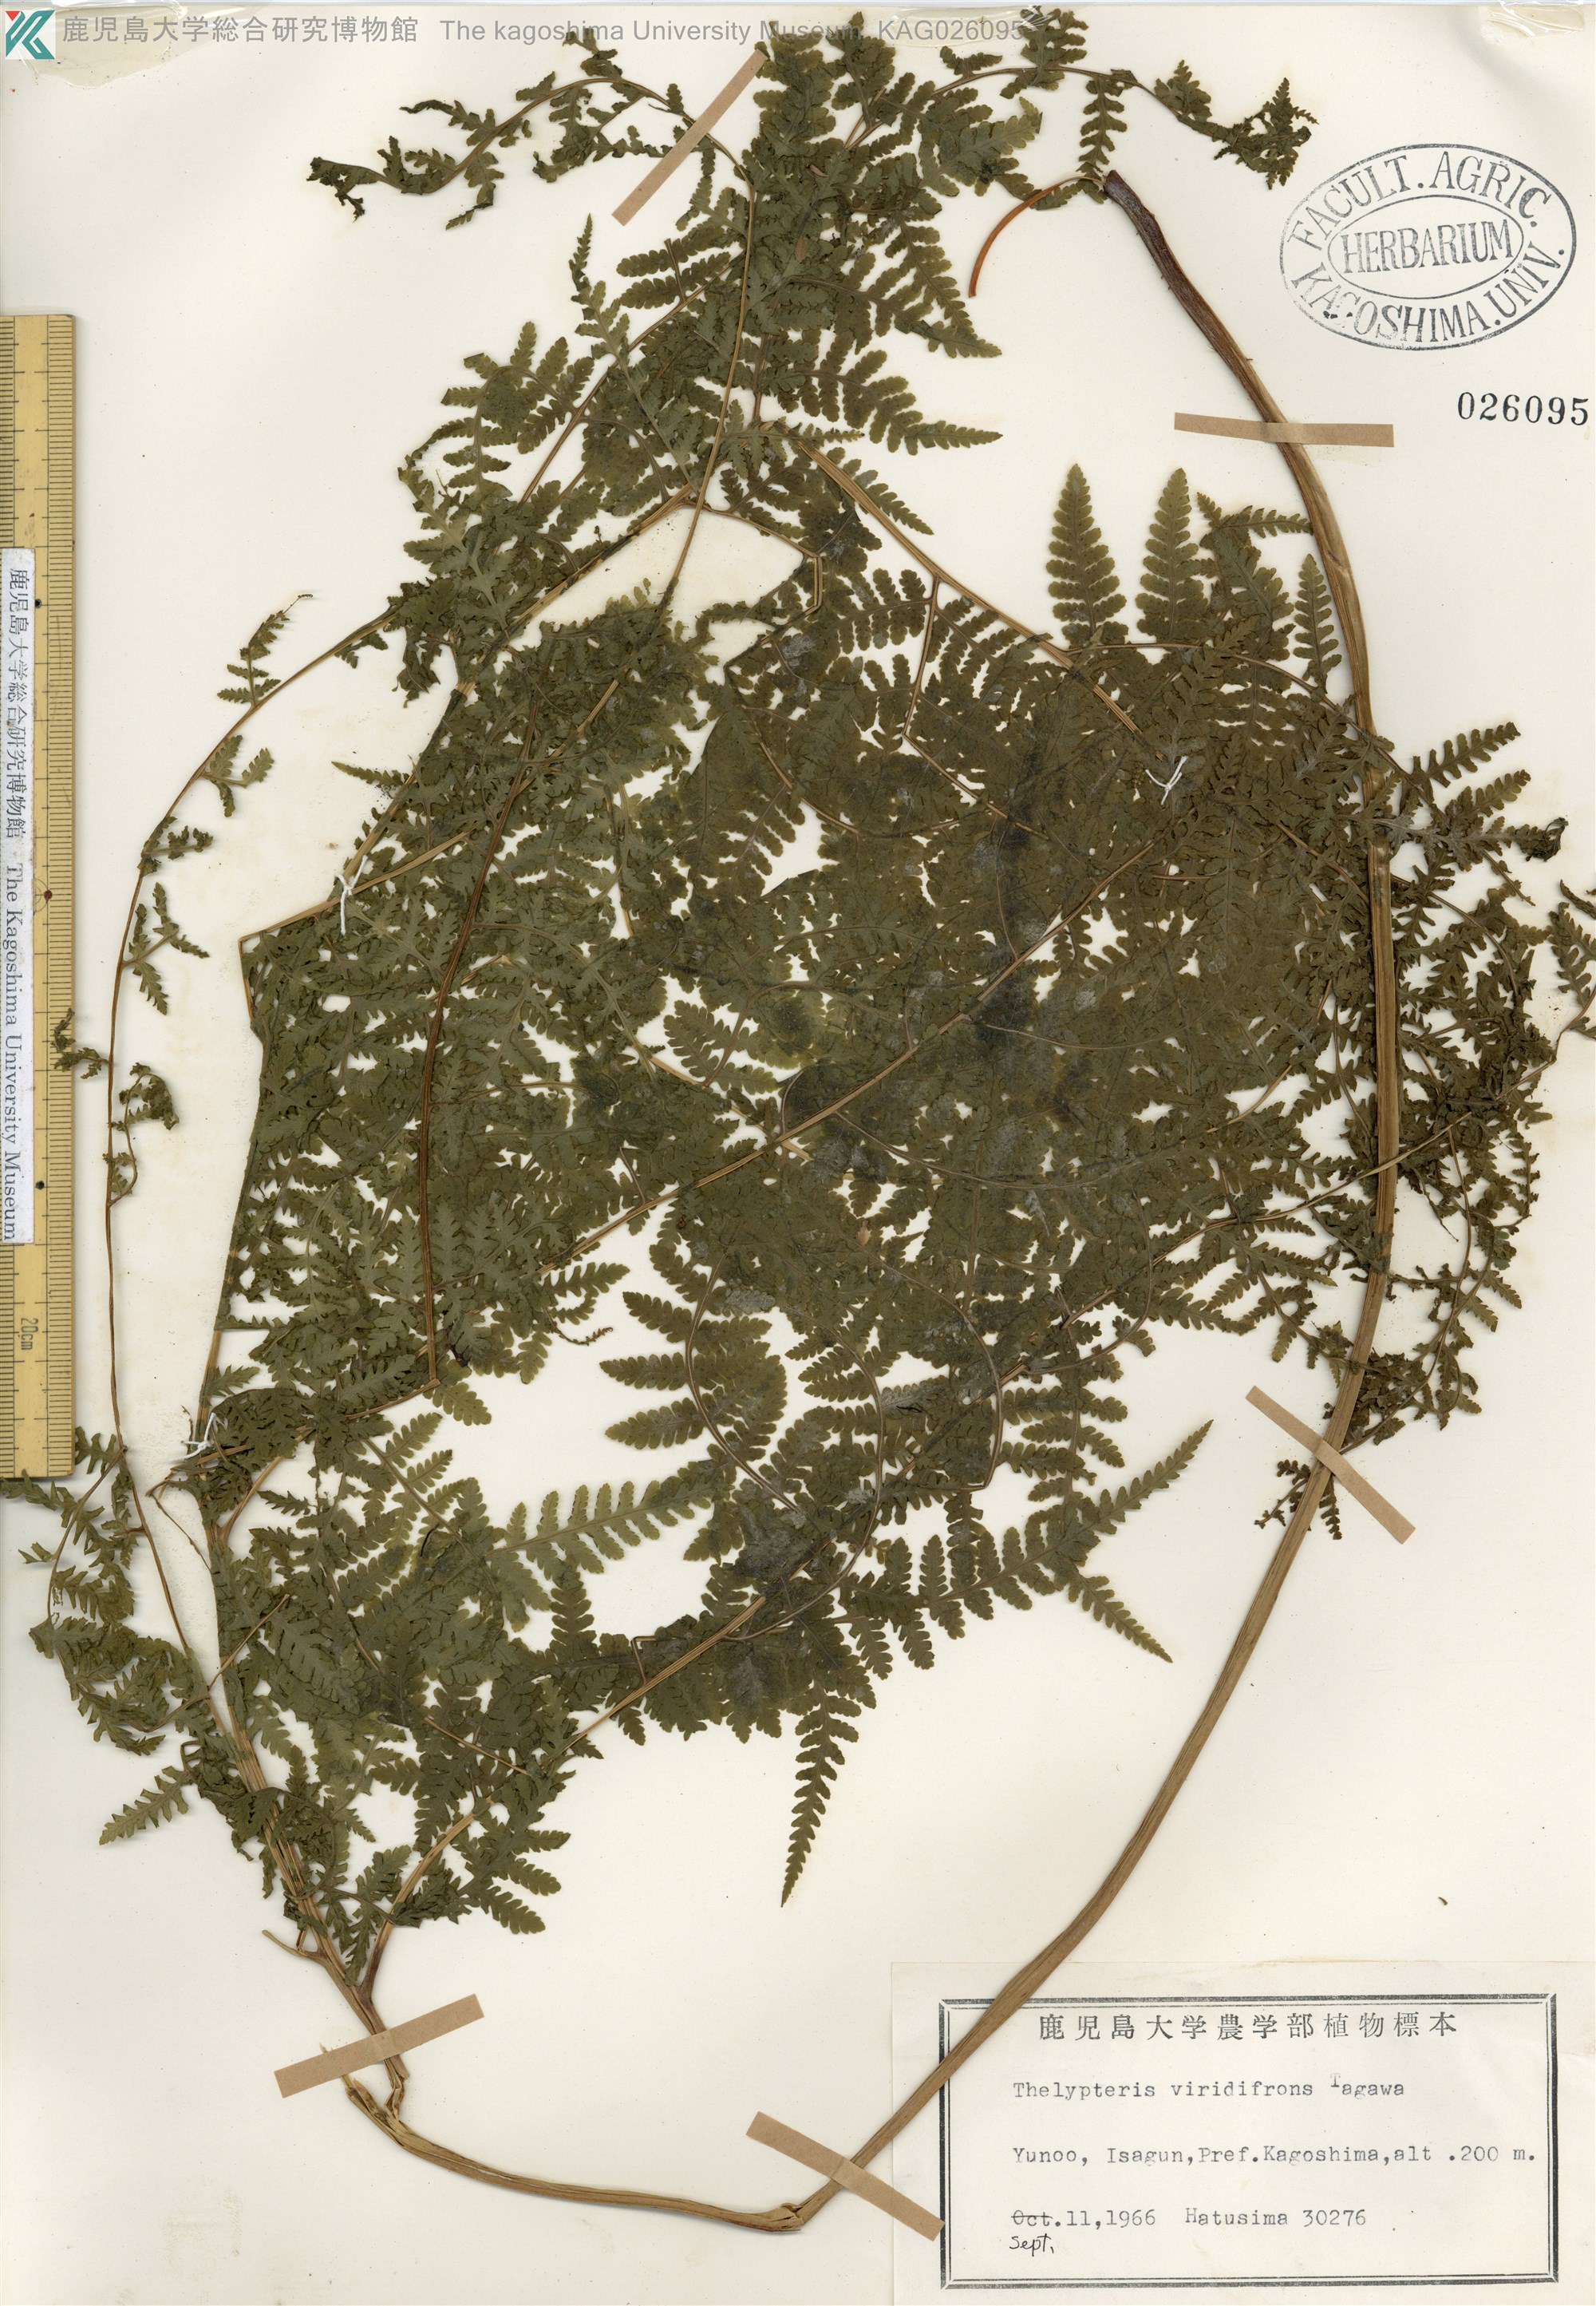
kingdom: Plantae
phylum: Tracheophyta
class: Polypodiopsida
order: Polypodiales
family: Thelypteridaceae
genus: Macrothelypteris
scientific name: Macrothelypteris viridifrons
